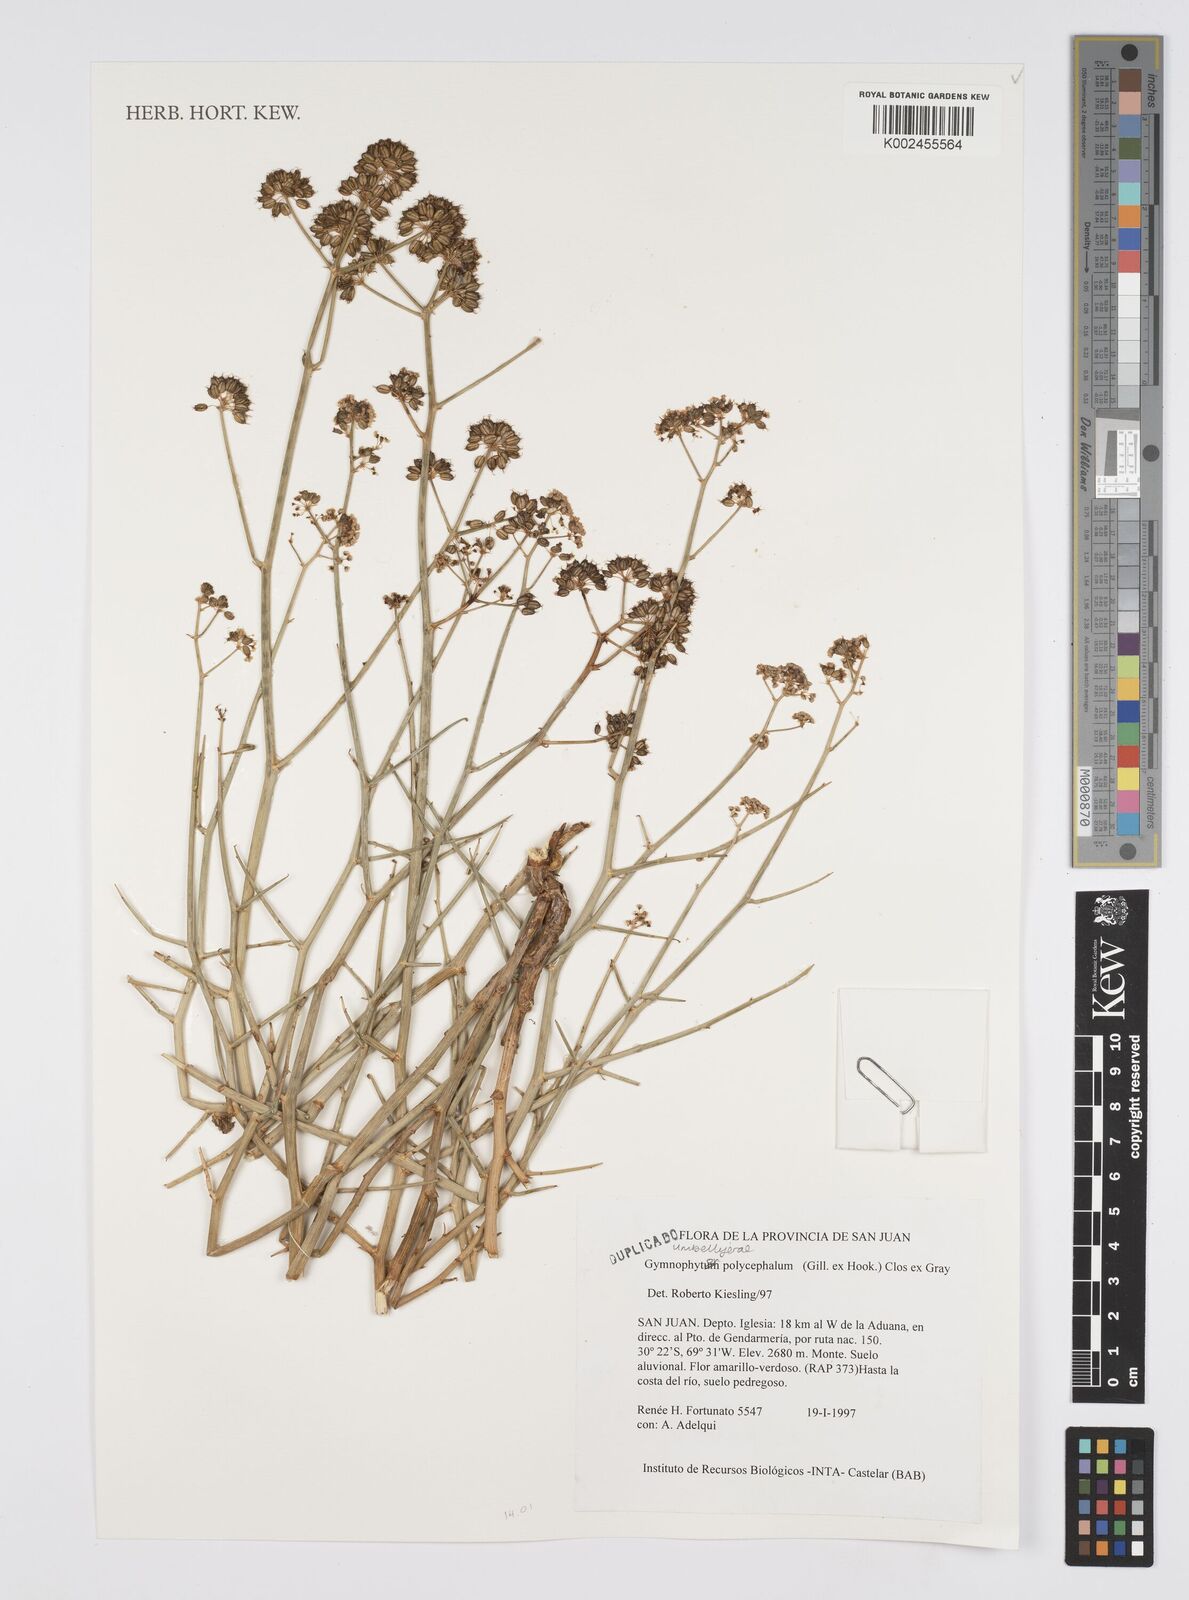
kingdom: Plantae
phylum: Tracheophyta
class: Magnoliopsida
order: Apiales
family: Apiaceae
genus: Gymnophyton
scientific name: Gymnophyton polycephalum
